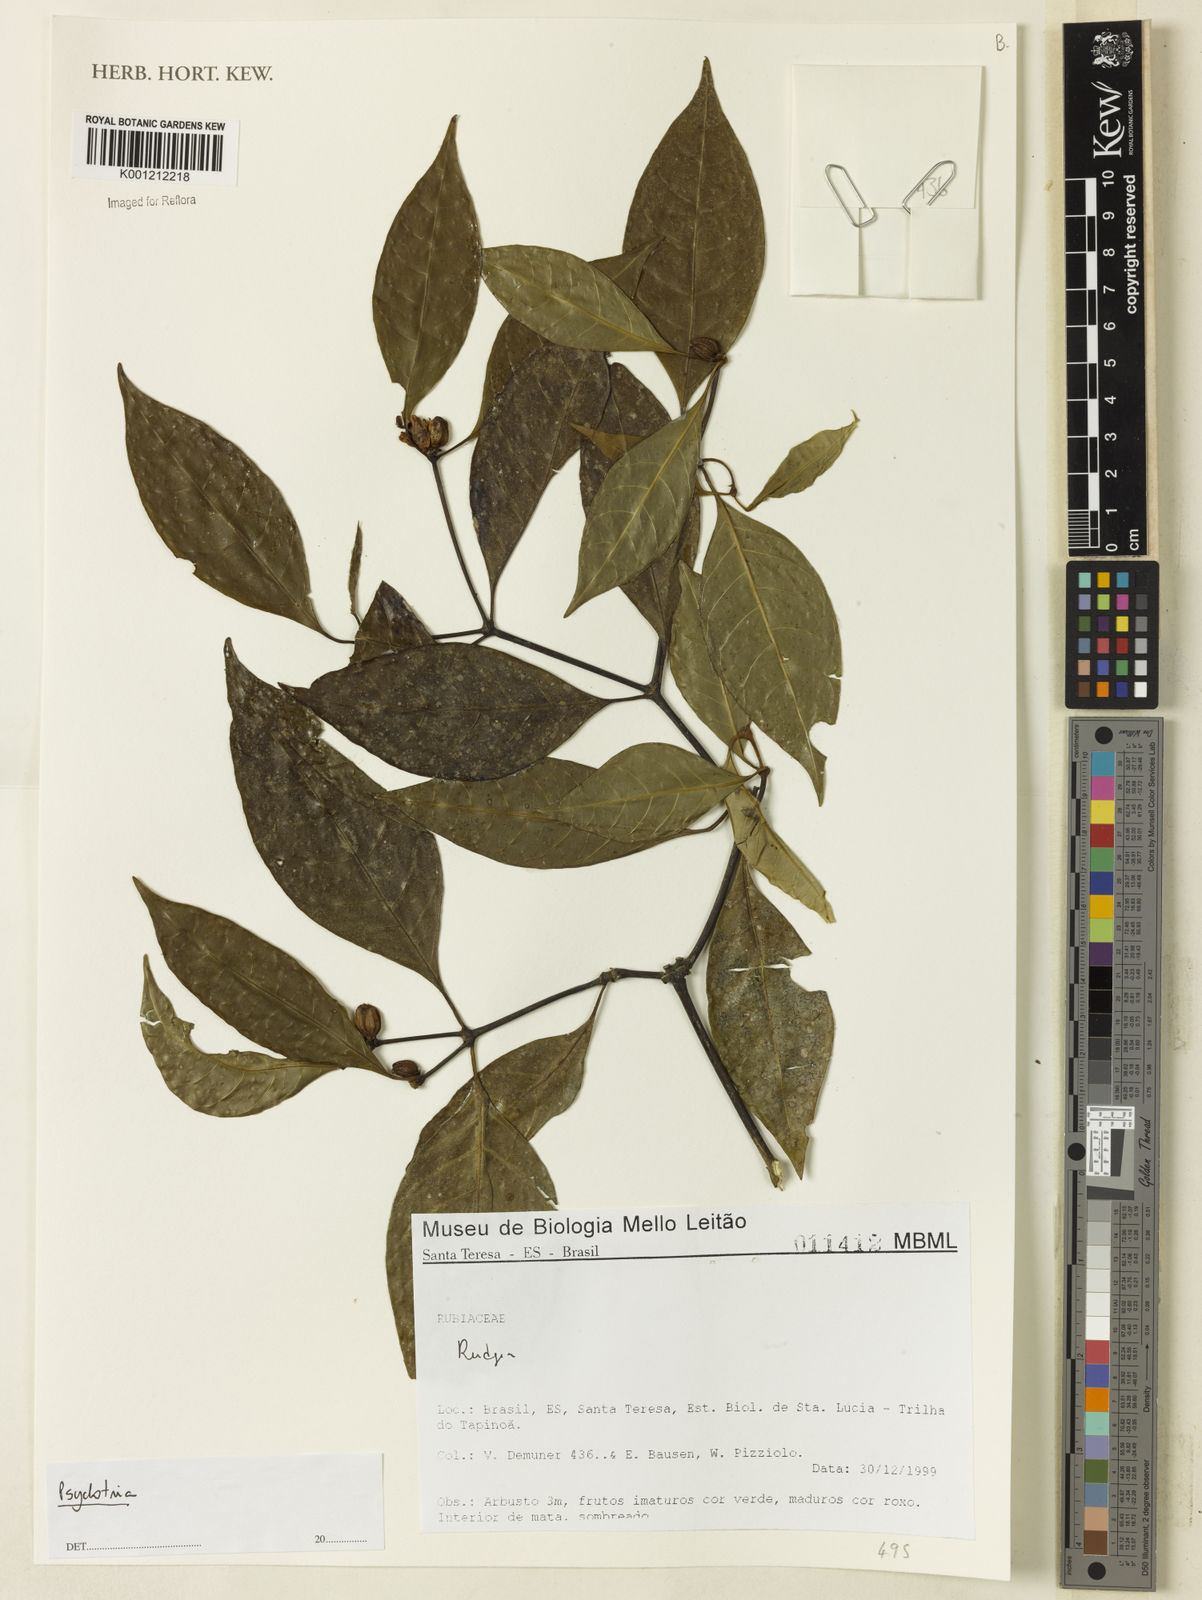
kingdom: Plantae
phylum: Tracheophyta
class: Magnoliopsida
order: Gentianales
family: Rubiaceae
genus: Psychotria
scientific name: Psychotria
